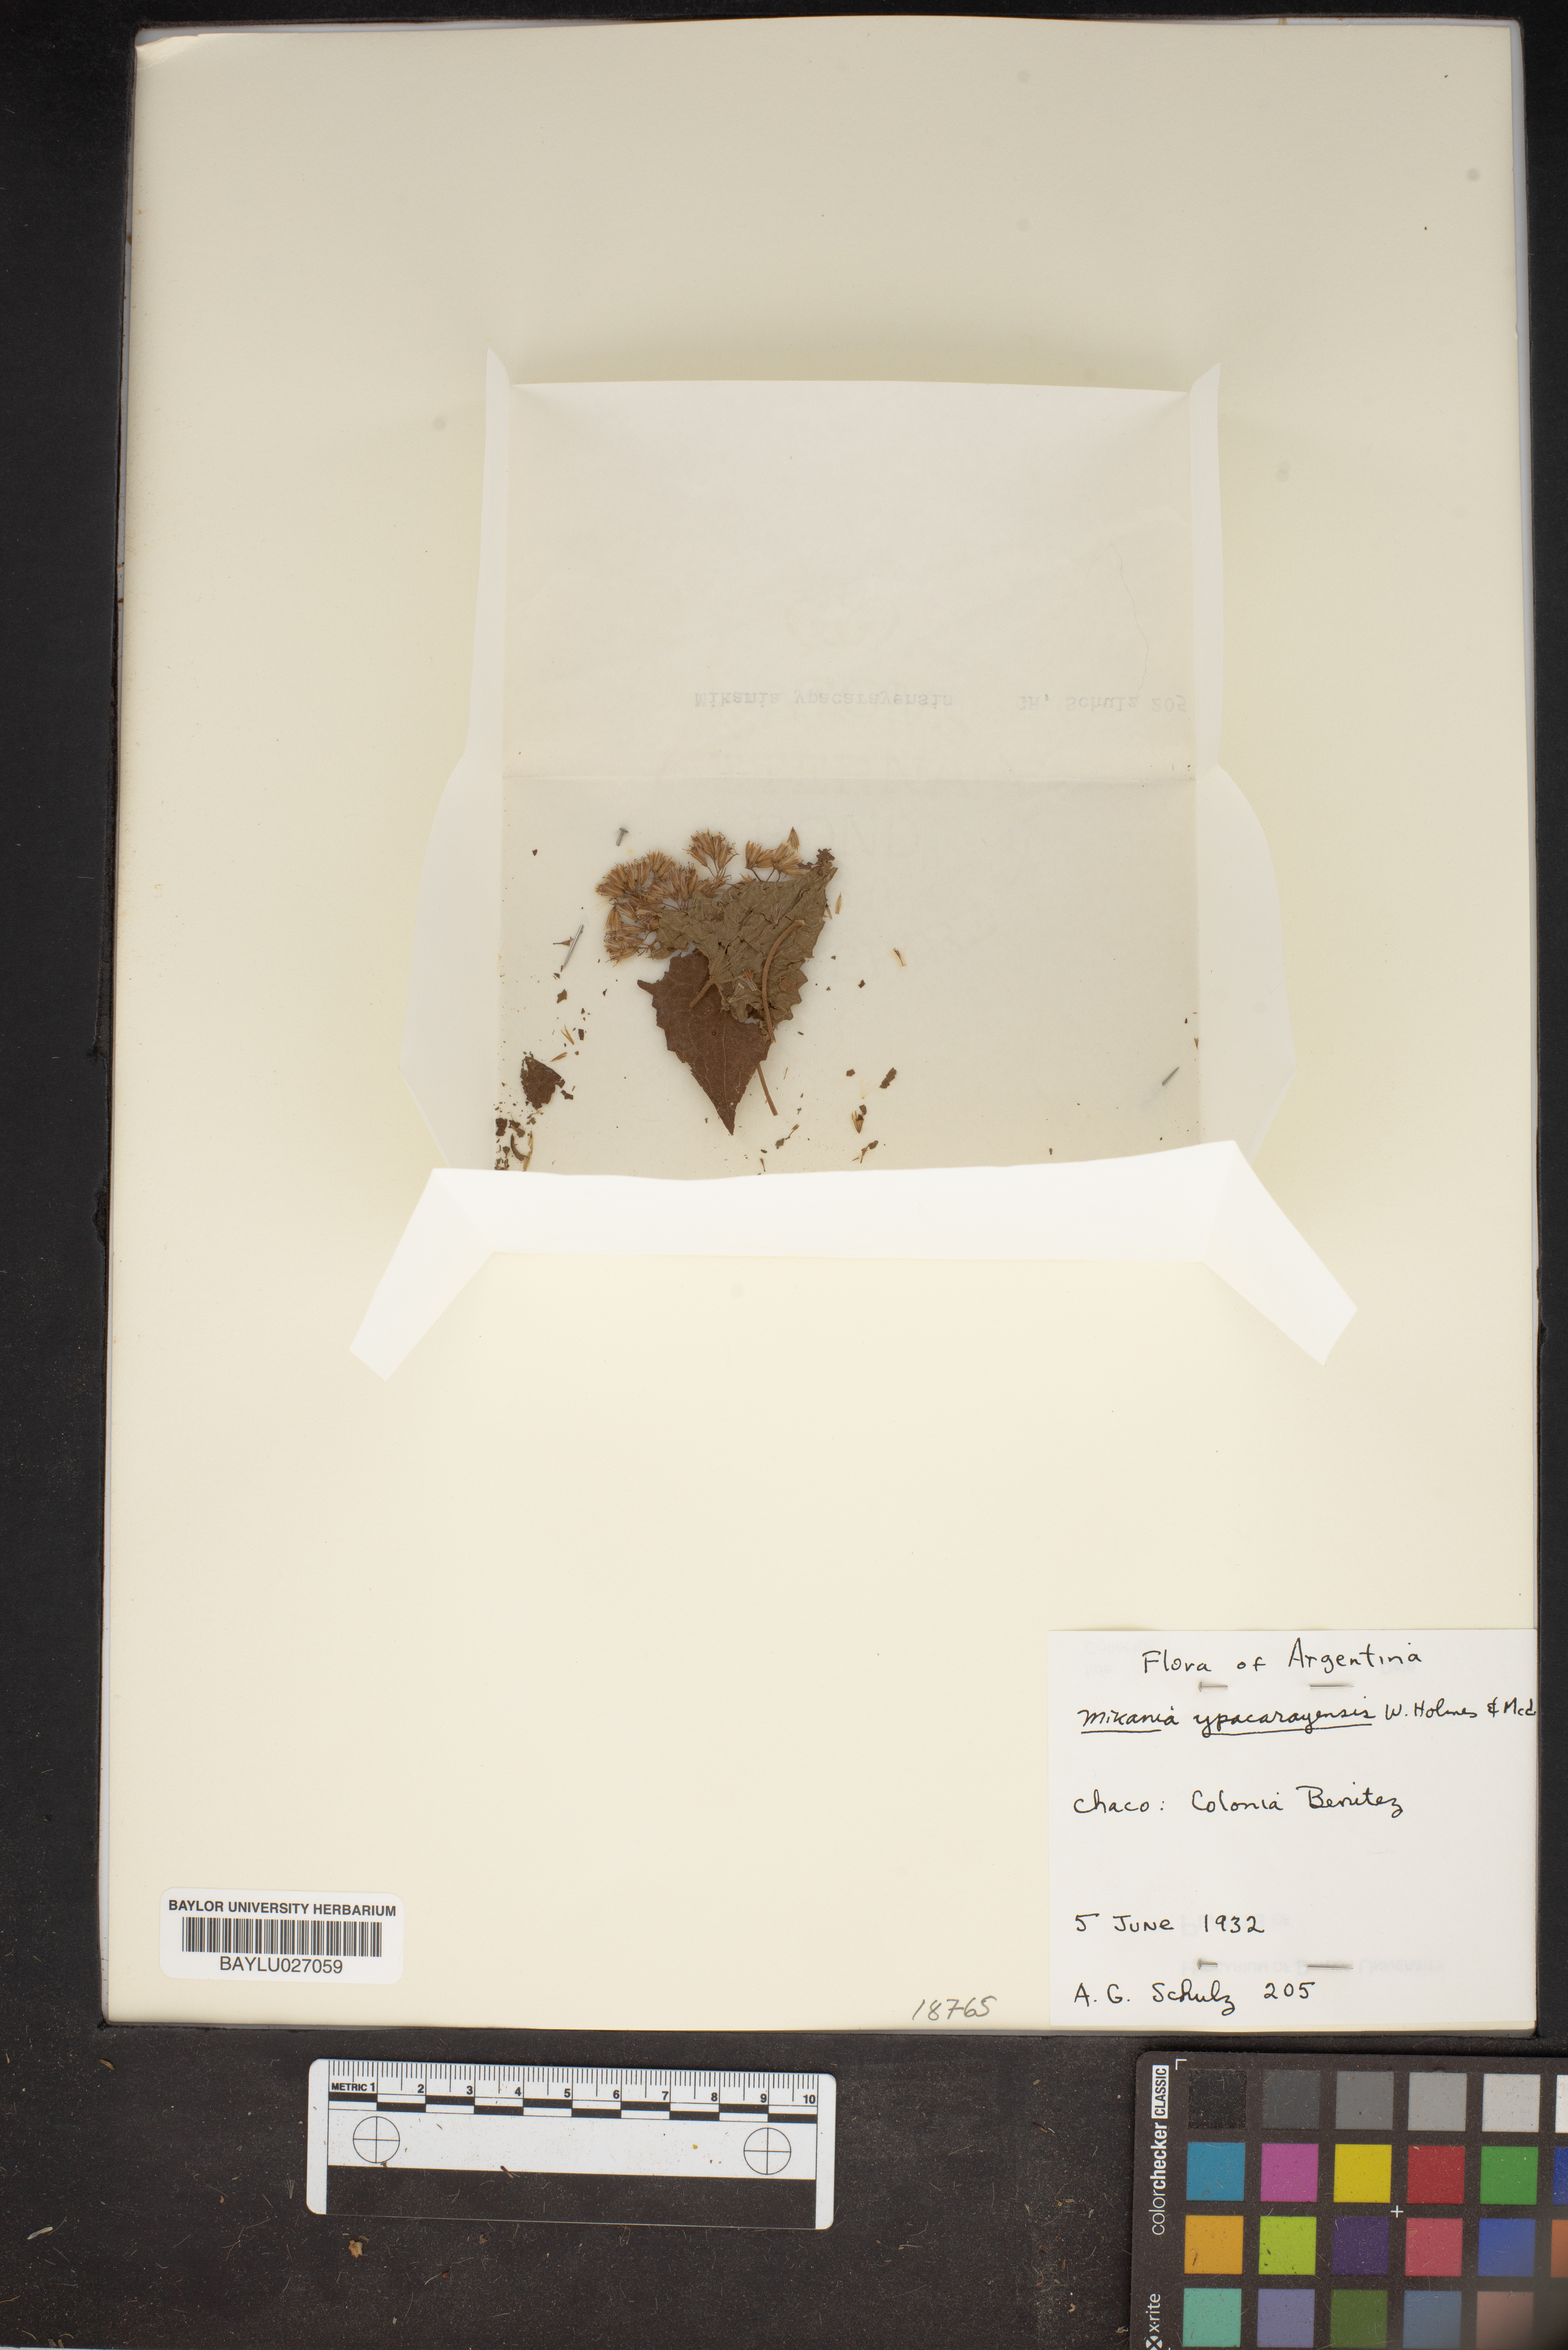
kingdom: Plantae
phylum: Tracheophyta
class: Magnoliopsida
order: Asterales
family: Asteraceae
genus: Mikania
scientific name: Mikania trachypleura
